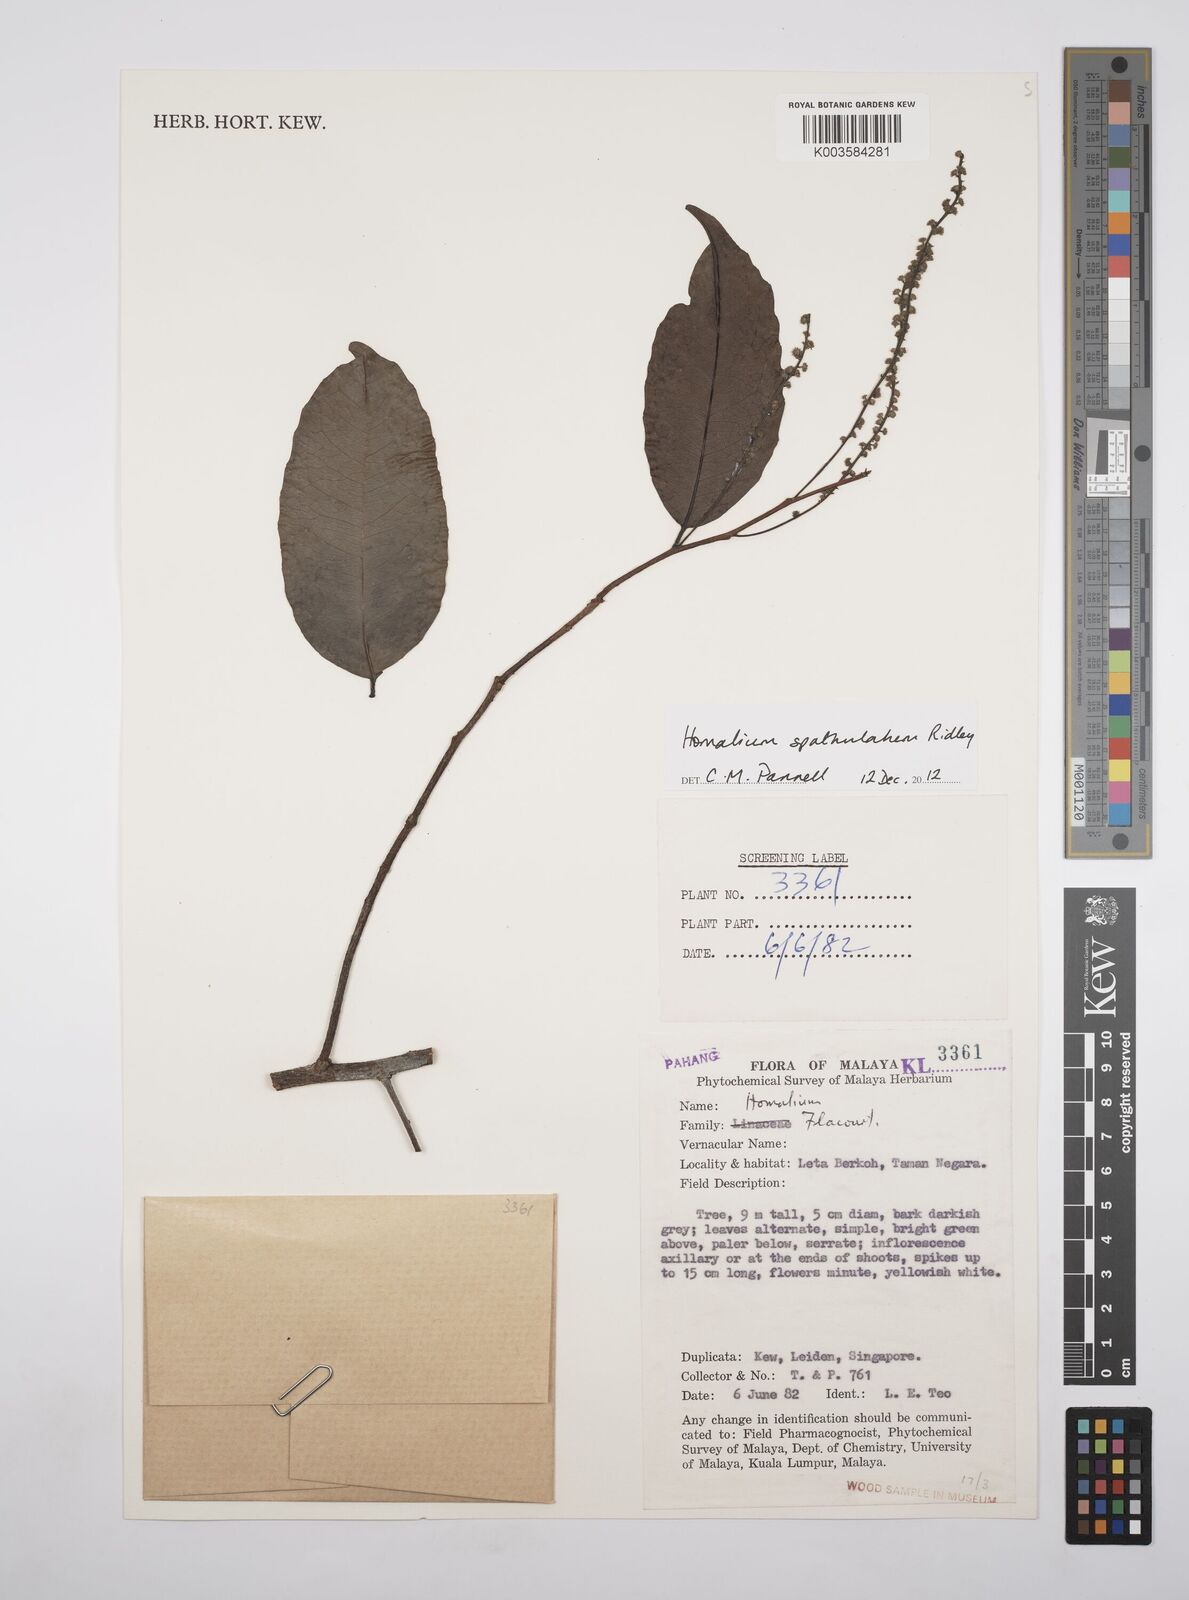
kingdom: Plantae
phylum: Tracheophyta
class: Magnoliopsida
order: Malpighiales
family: Salicaceae
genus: Homalium
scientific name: Homalium spathulatum
